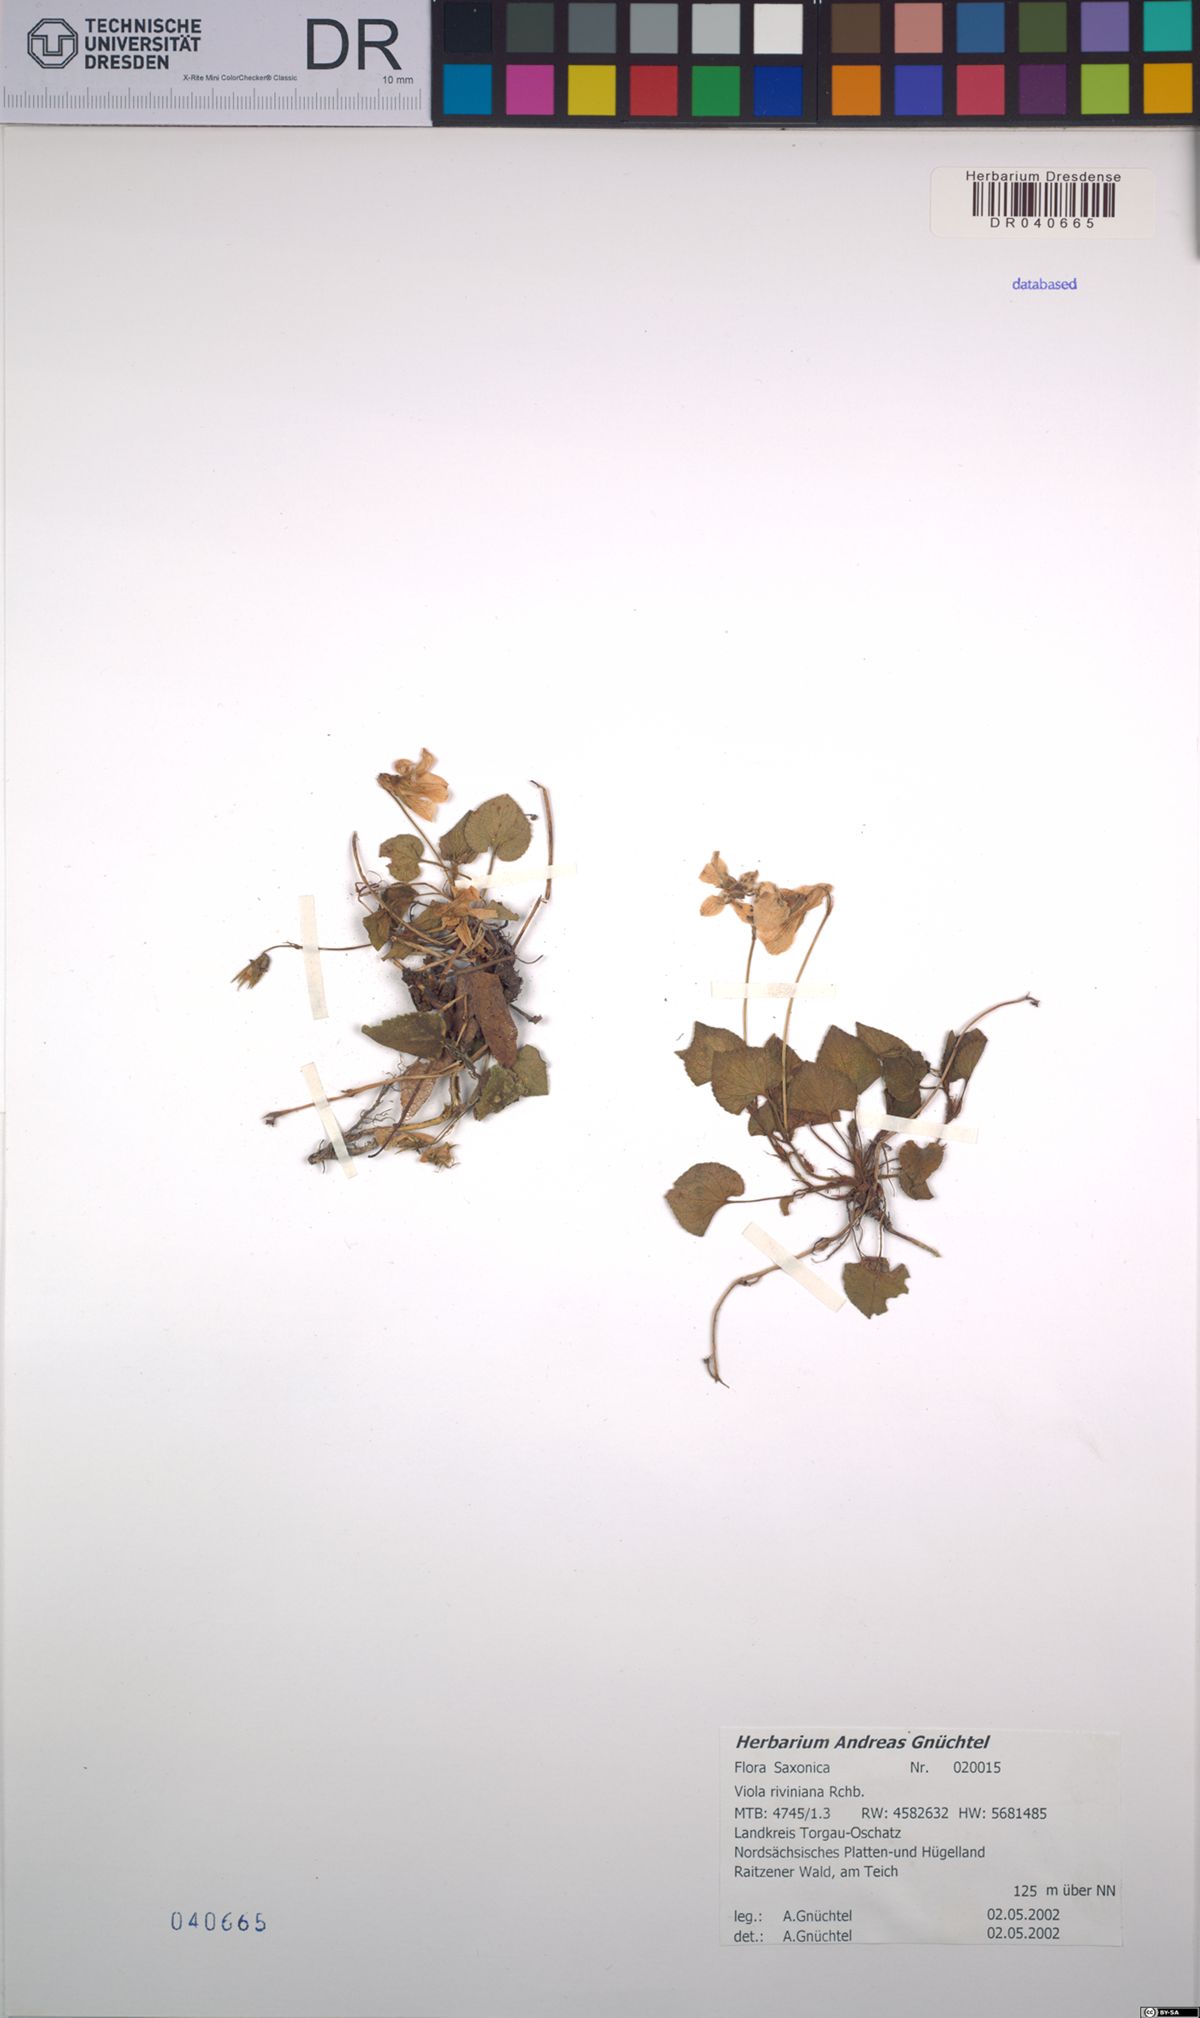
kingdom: Plantae
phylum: Tracheophyta
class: Magnoliopsida
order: Malpighiales
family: Violaceae
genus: Viola
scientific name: Viola riviniana
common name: Common dog-violet
